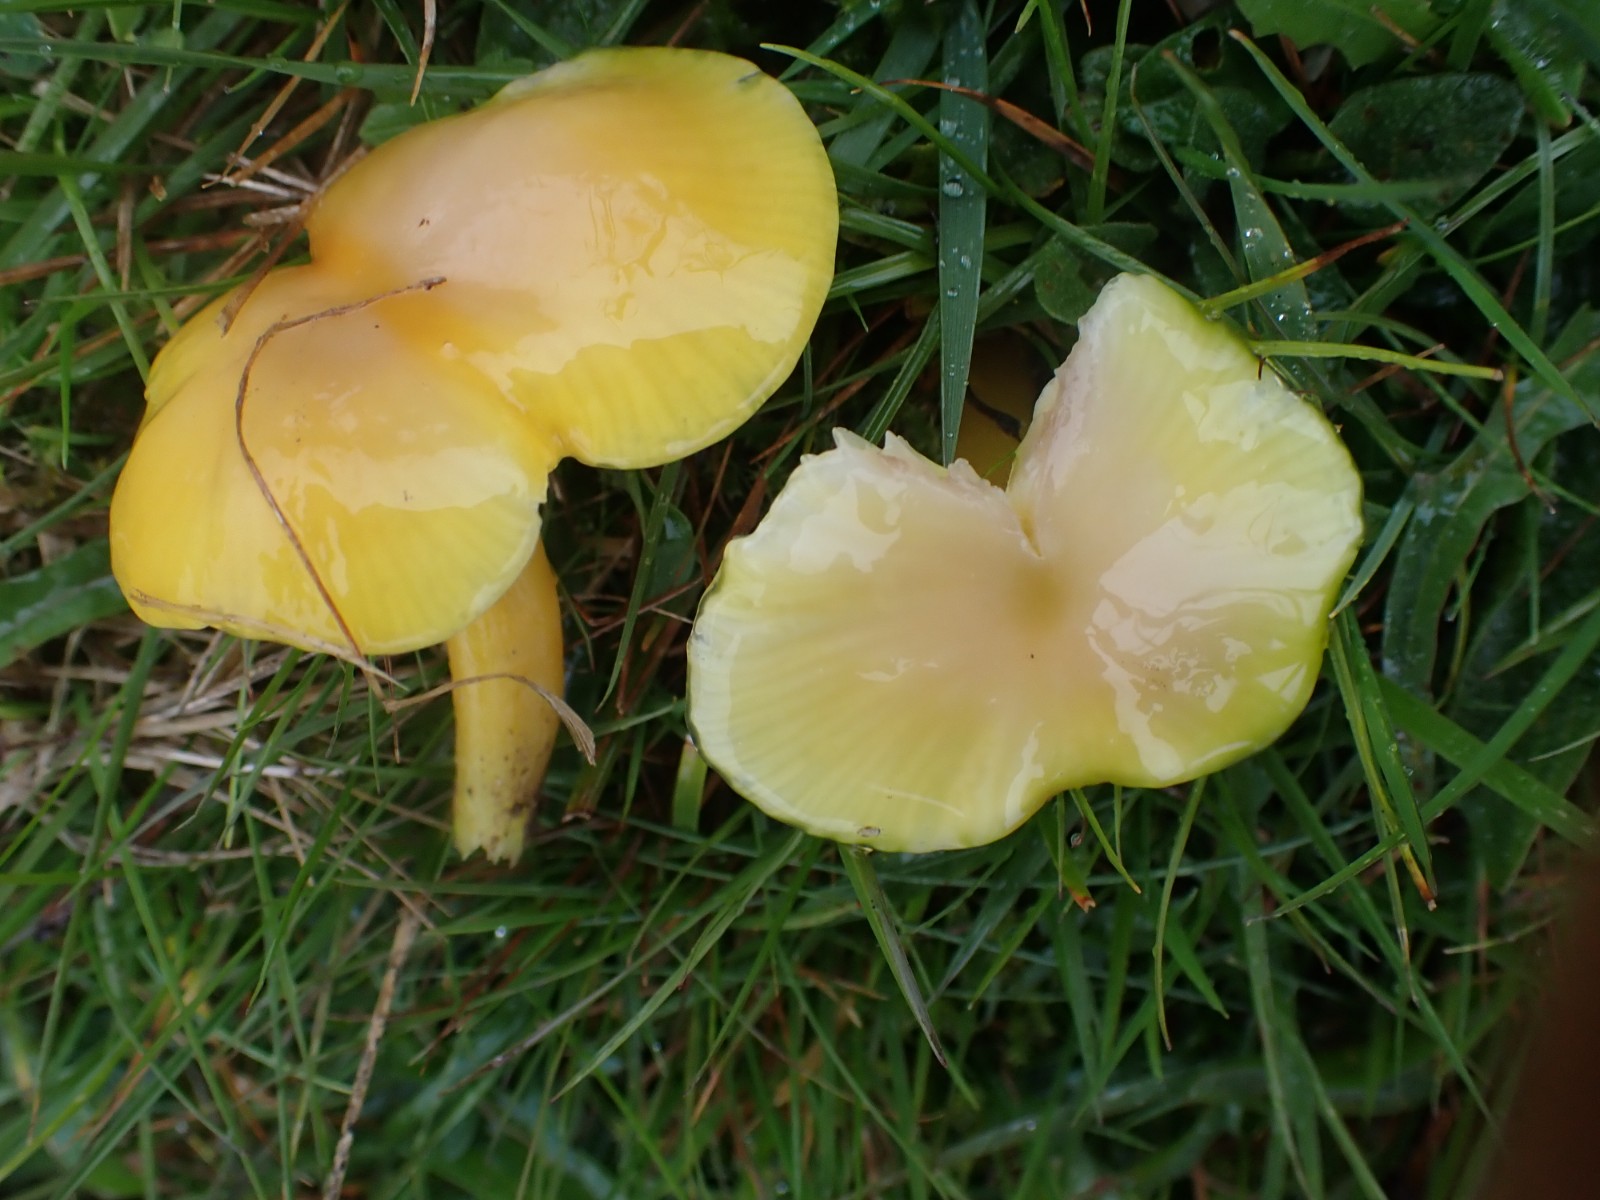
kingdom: Fungi
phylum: Basidiomycota
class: Agaricomycetes
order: Agaricales
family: Hygrophoraceae
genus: Hygrocybe
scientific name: Hygrocybe chlorophana
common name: gul vokshat
